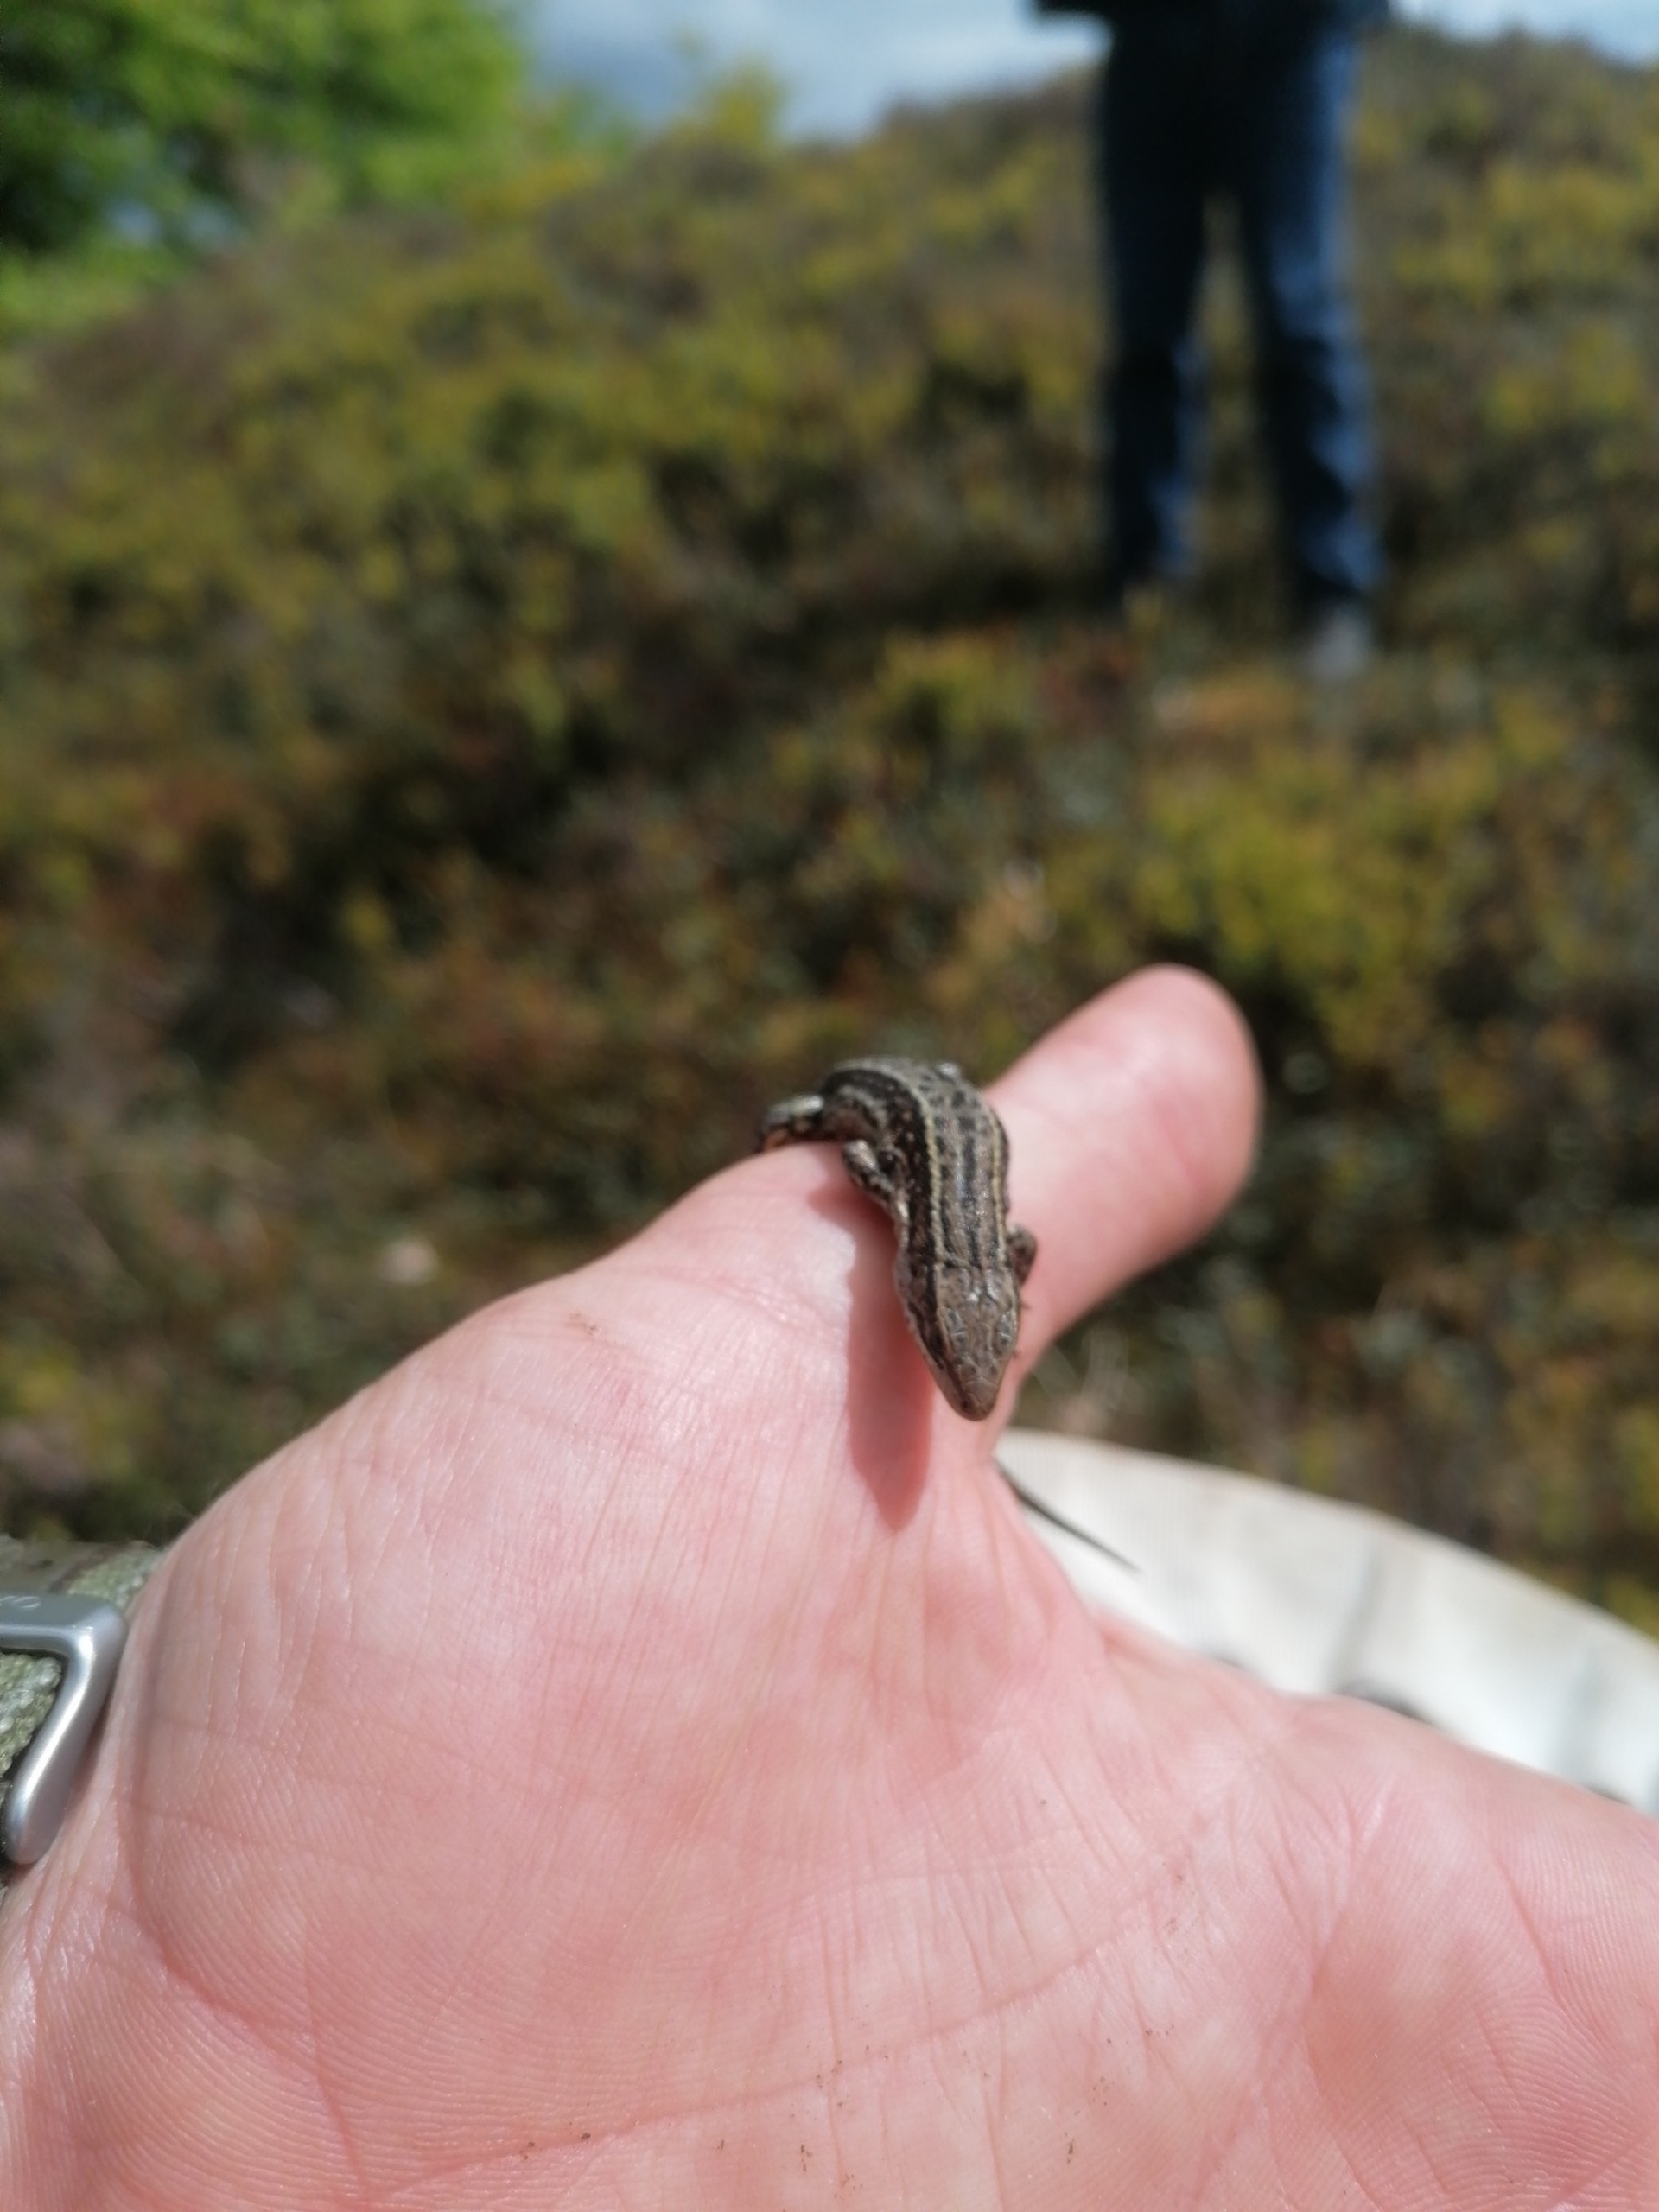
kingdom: Animalia
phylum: Chordata
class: Squamata
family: Lacertidae
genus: Zootoca
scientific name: Zootoca vivipara
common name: Skovfirben
